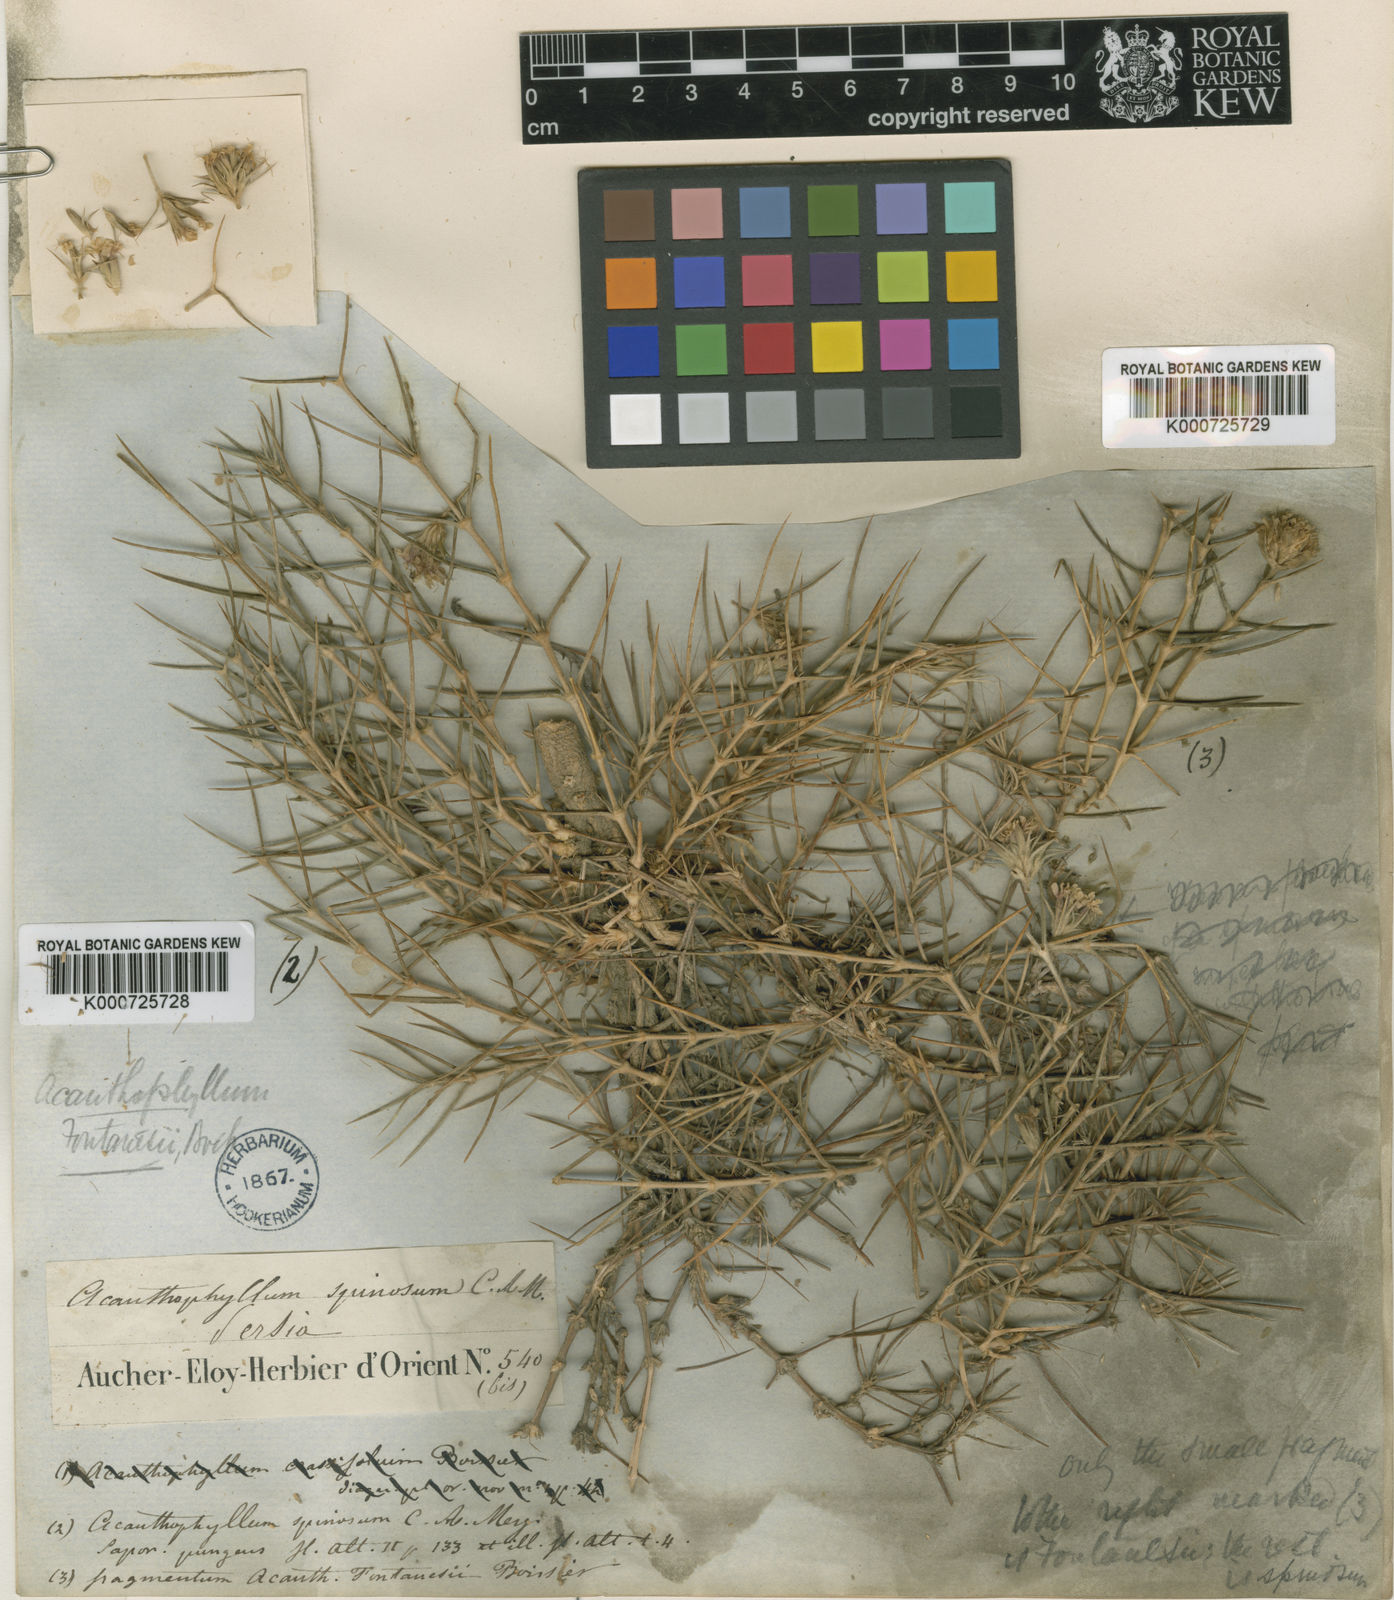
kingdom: Plantae
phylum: Tracheophyta
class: Magnoliopsida
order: Caryophyllales
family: Caryophyllaceae
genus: Acanthophyllum
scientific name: Acanthophyllum
